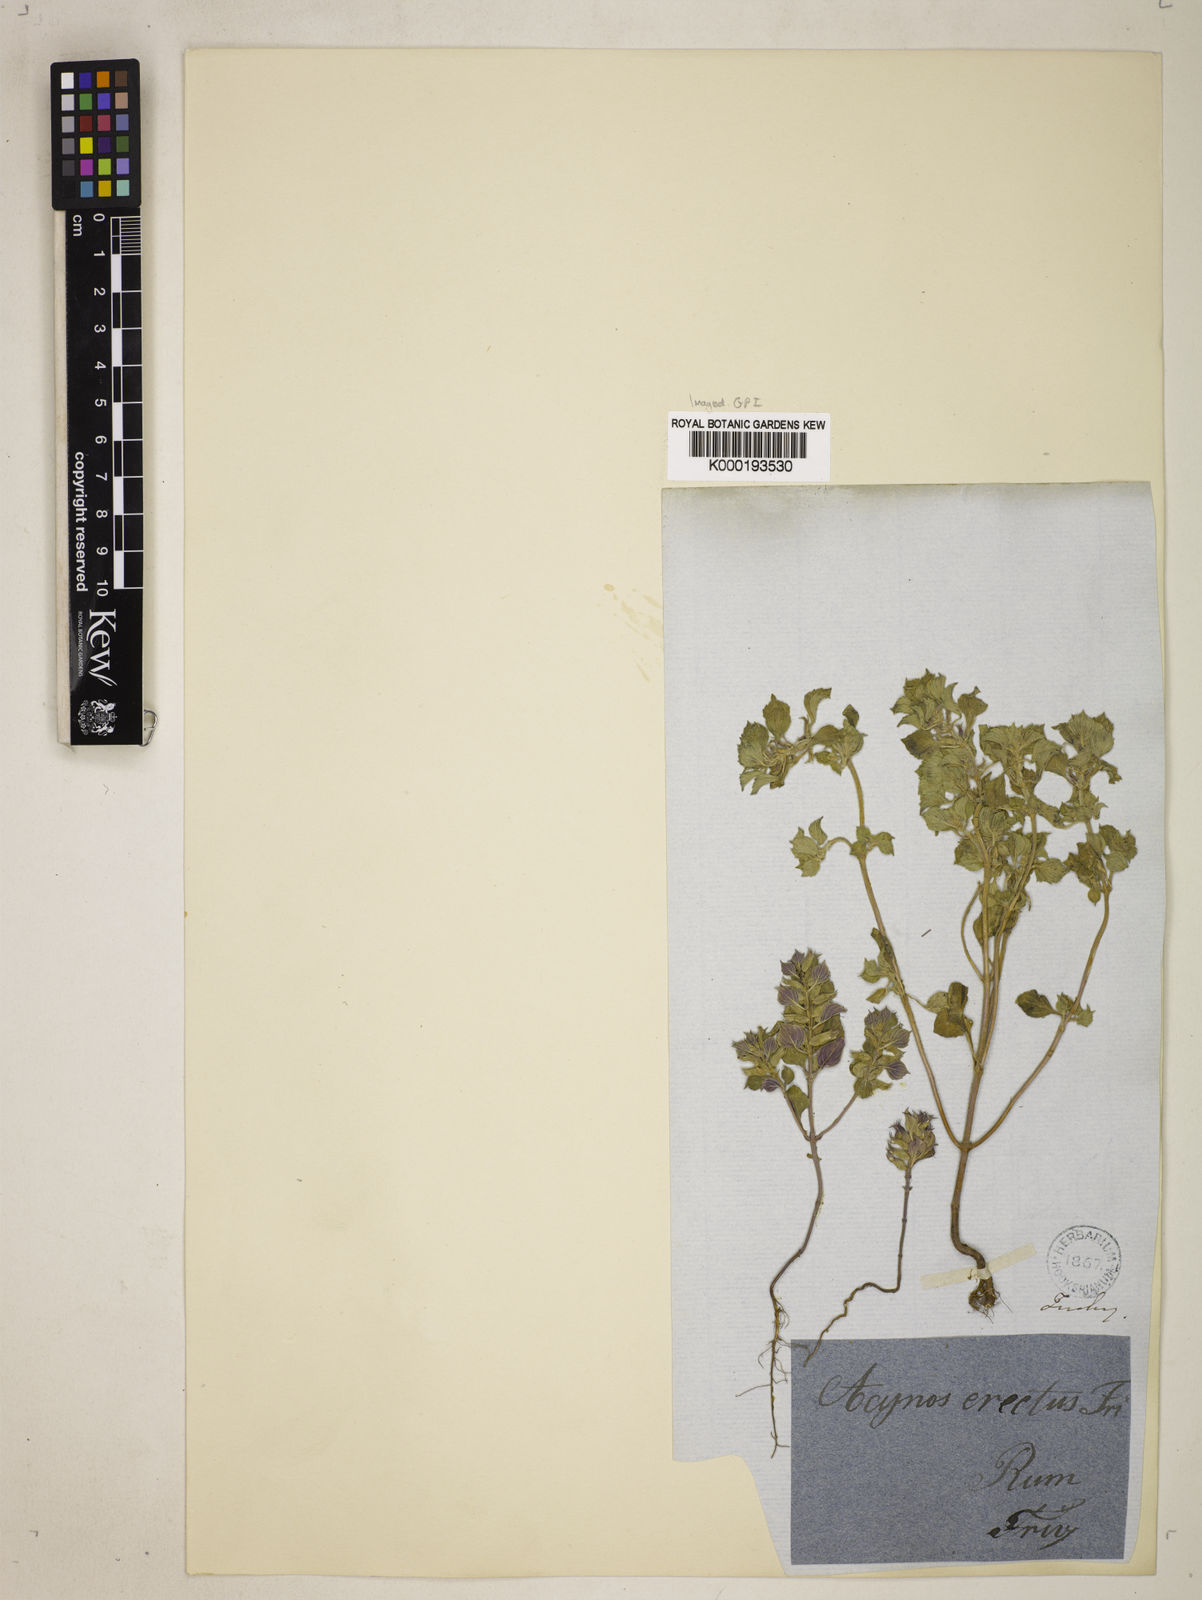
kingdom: Plantae
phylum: Tracheophyta
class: Magnoliopsida
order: Lamiales
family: Lamiaceae
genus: Clinopodium
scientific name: Clinopodium graveolens
